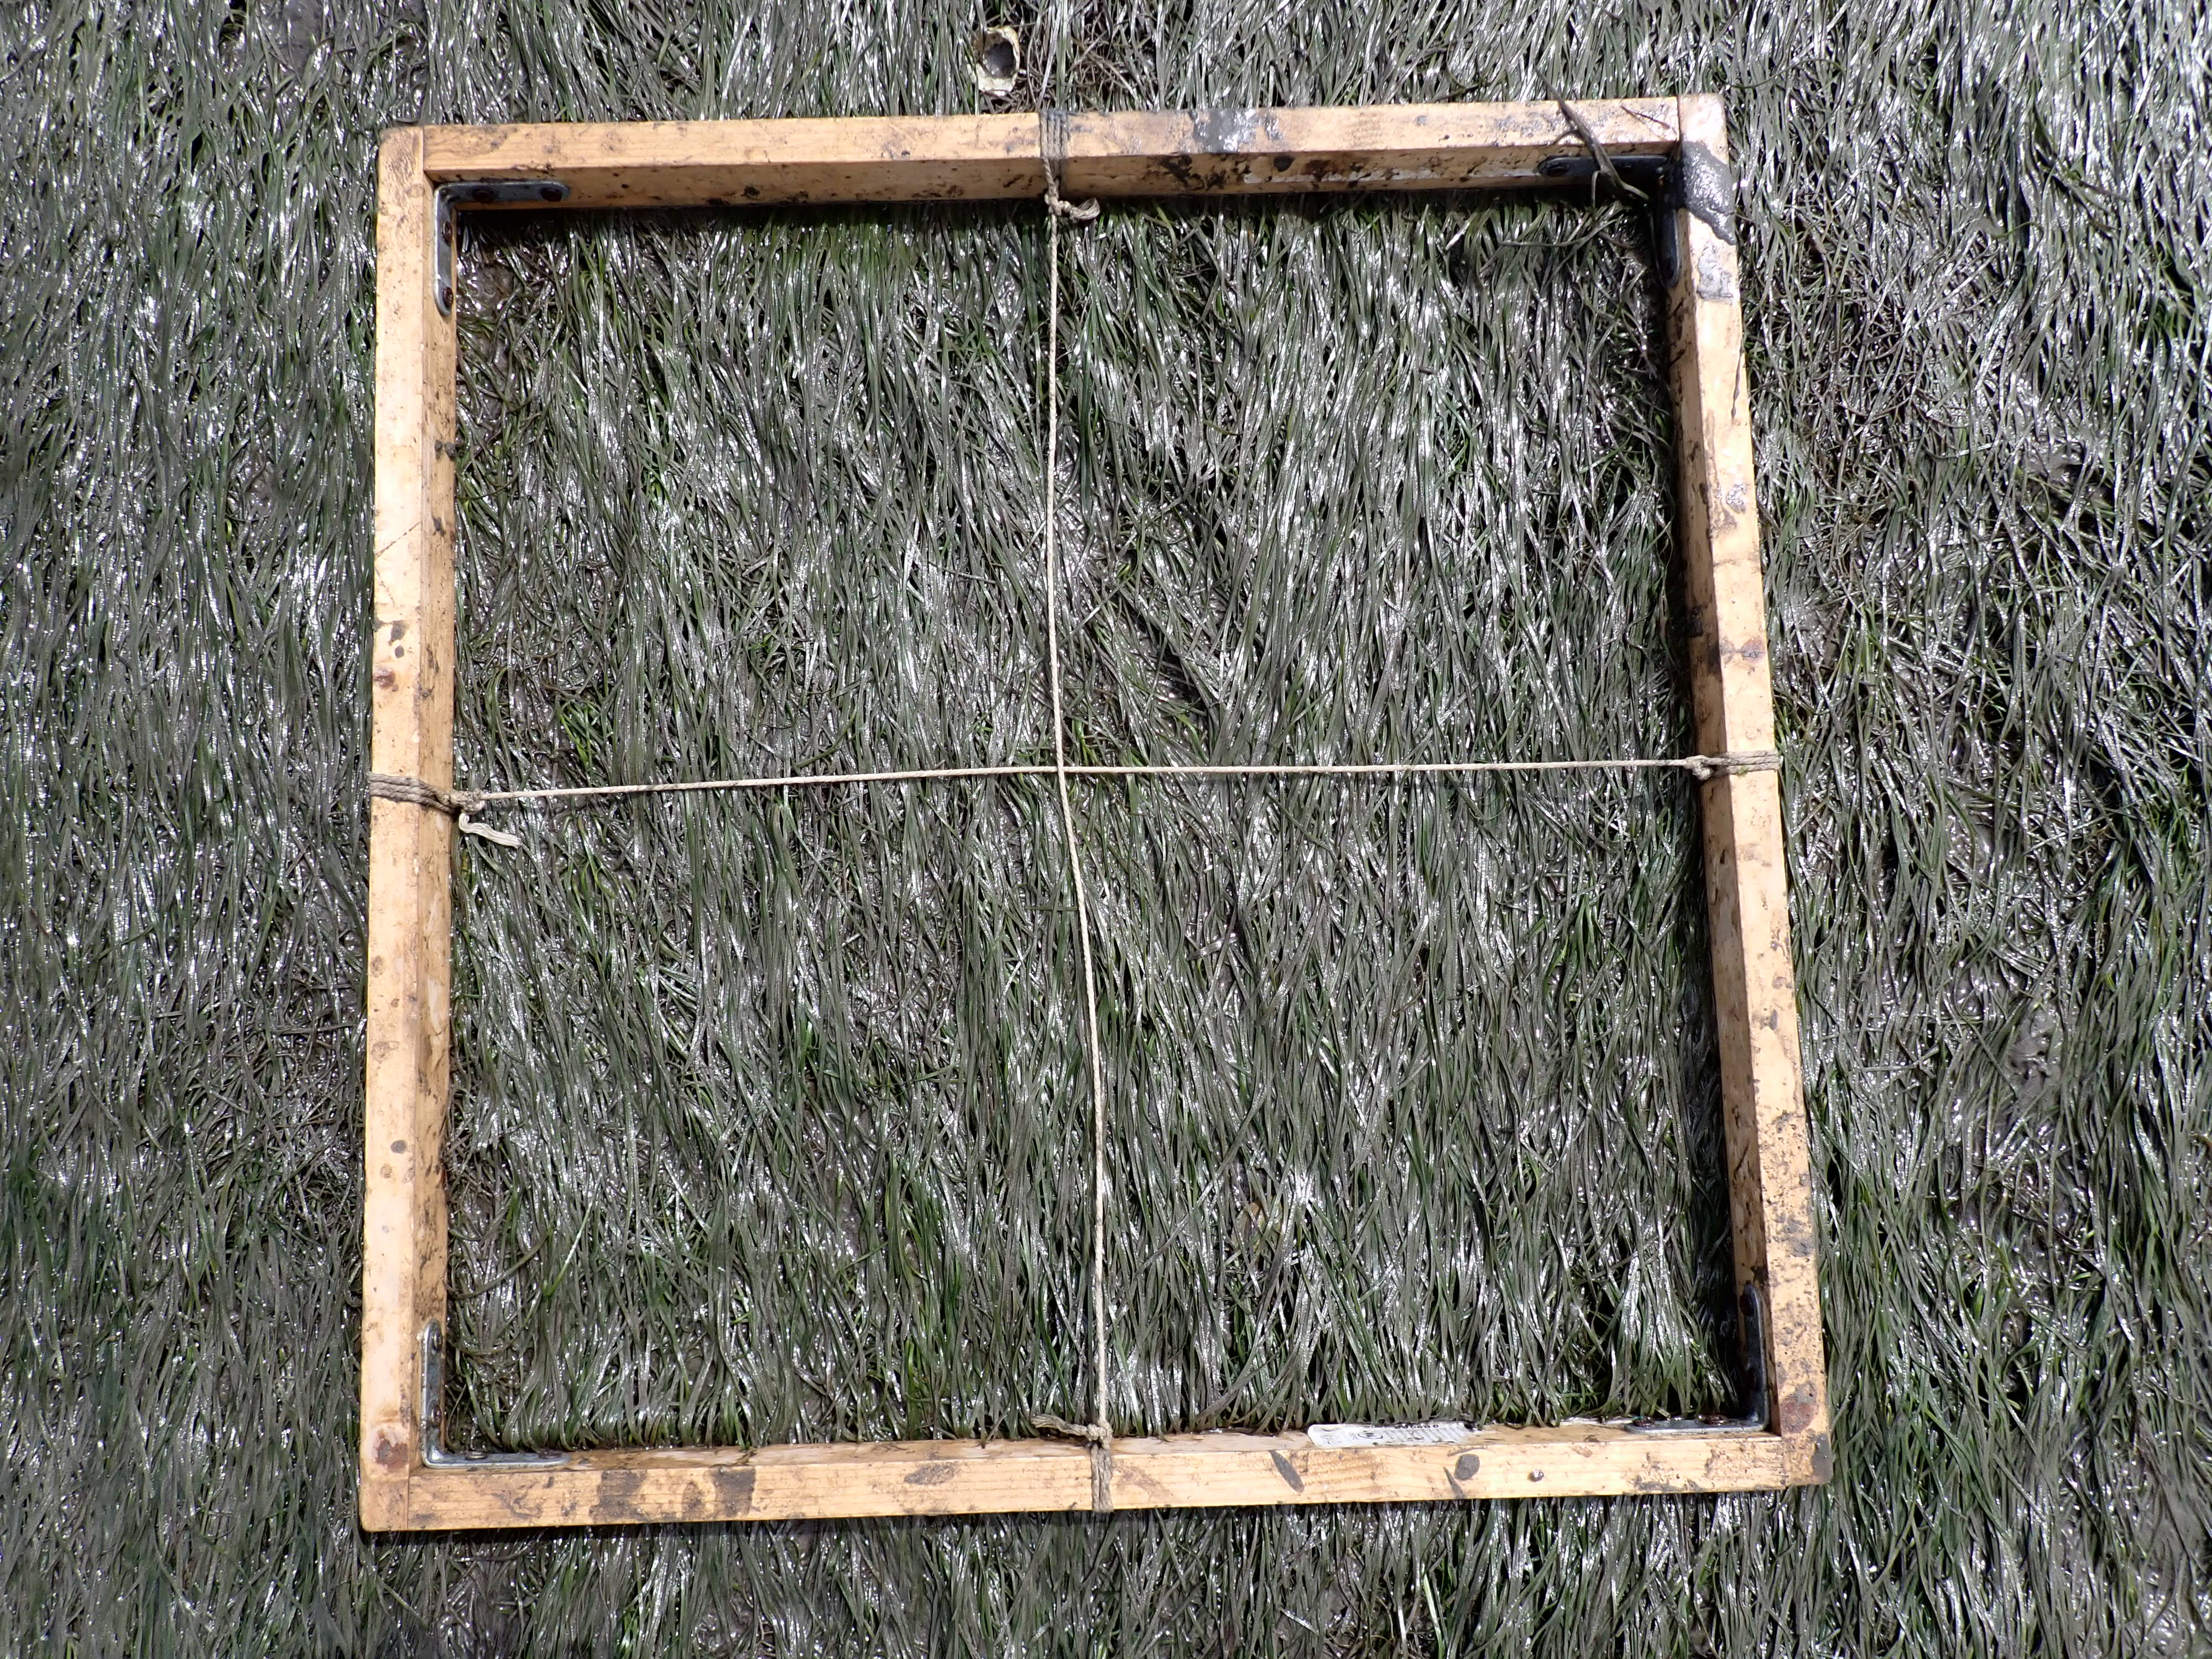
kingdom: Plantae
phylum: Tracheophyta
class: Liliopsida
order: Alismatales
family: Zosteraceae
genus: Zostera
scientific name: Zostera noltii
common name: Dwarf eelgrass
